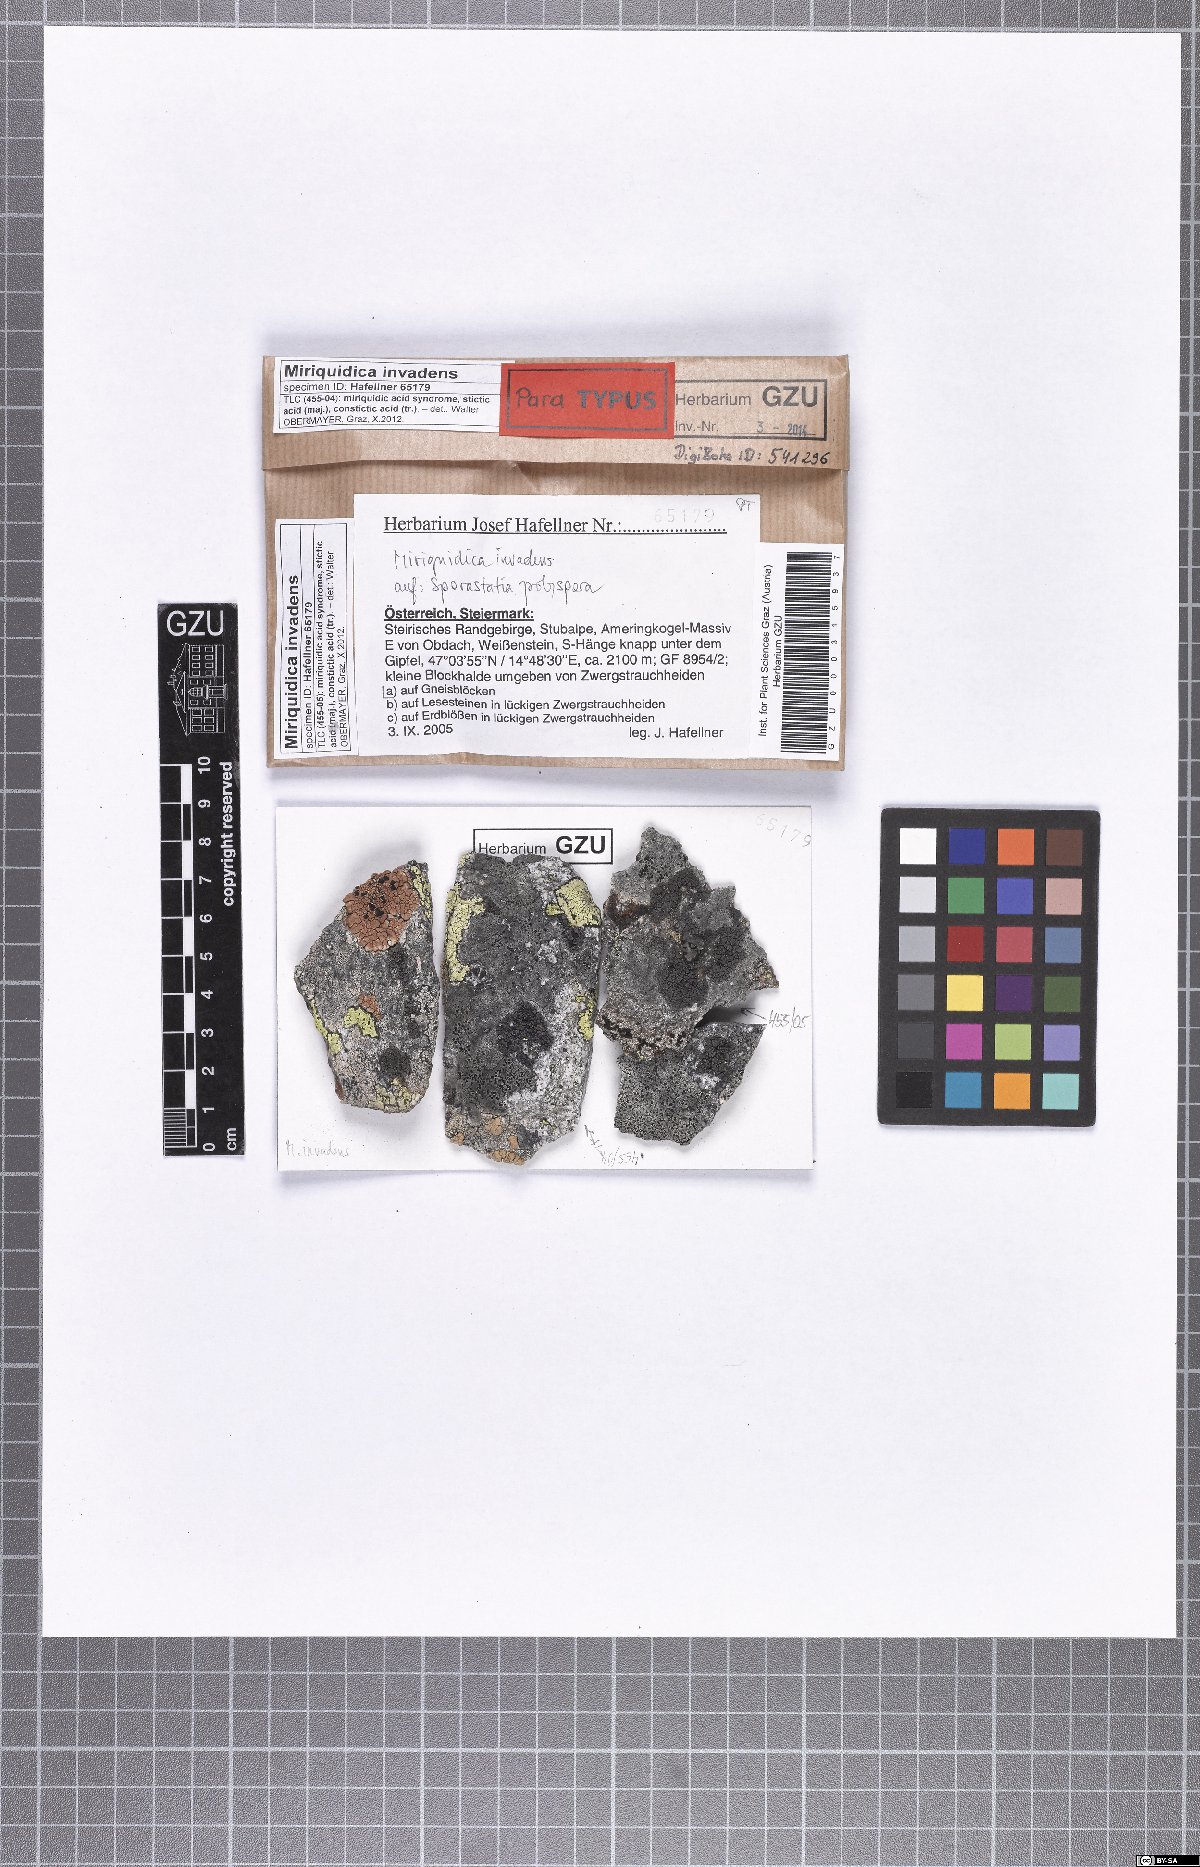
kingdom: Fungi
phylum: Ascomycota
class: Lecanoromycetes
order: Lecanorales
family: Lecanoraceae
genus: Miriquidica
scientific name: Miriquidica invadens
